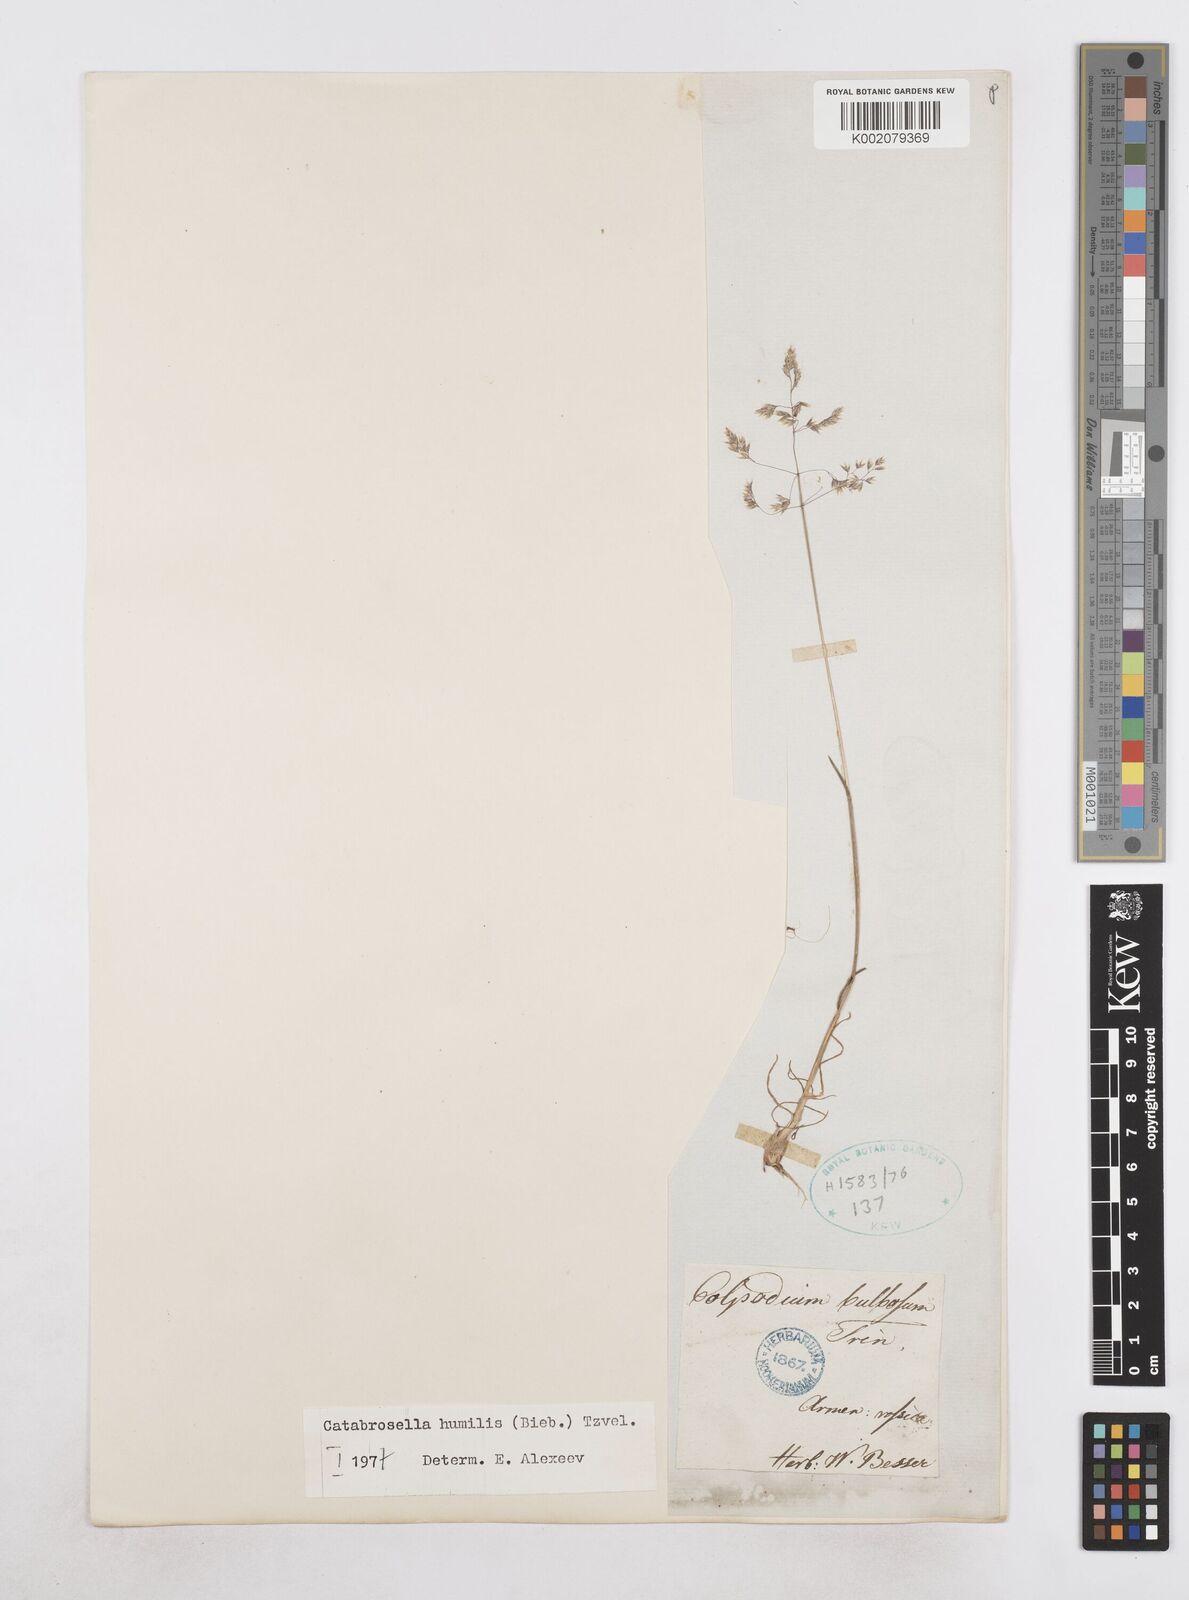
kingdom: Plantae
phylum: Tracheophyta
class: Liliopsida
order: Poales
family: Poaceae
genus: Catabrosella
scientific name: Catabrosella humilis
